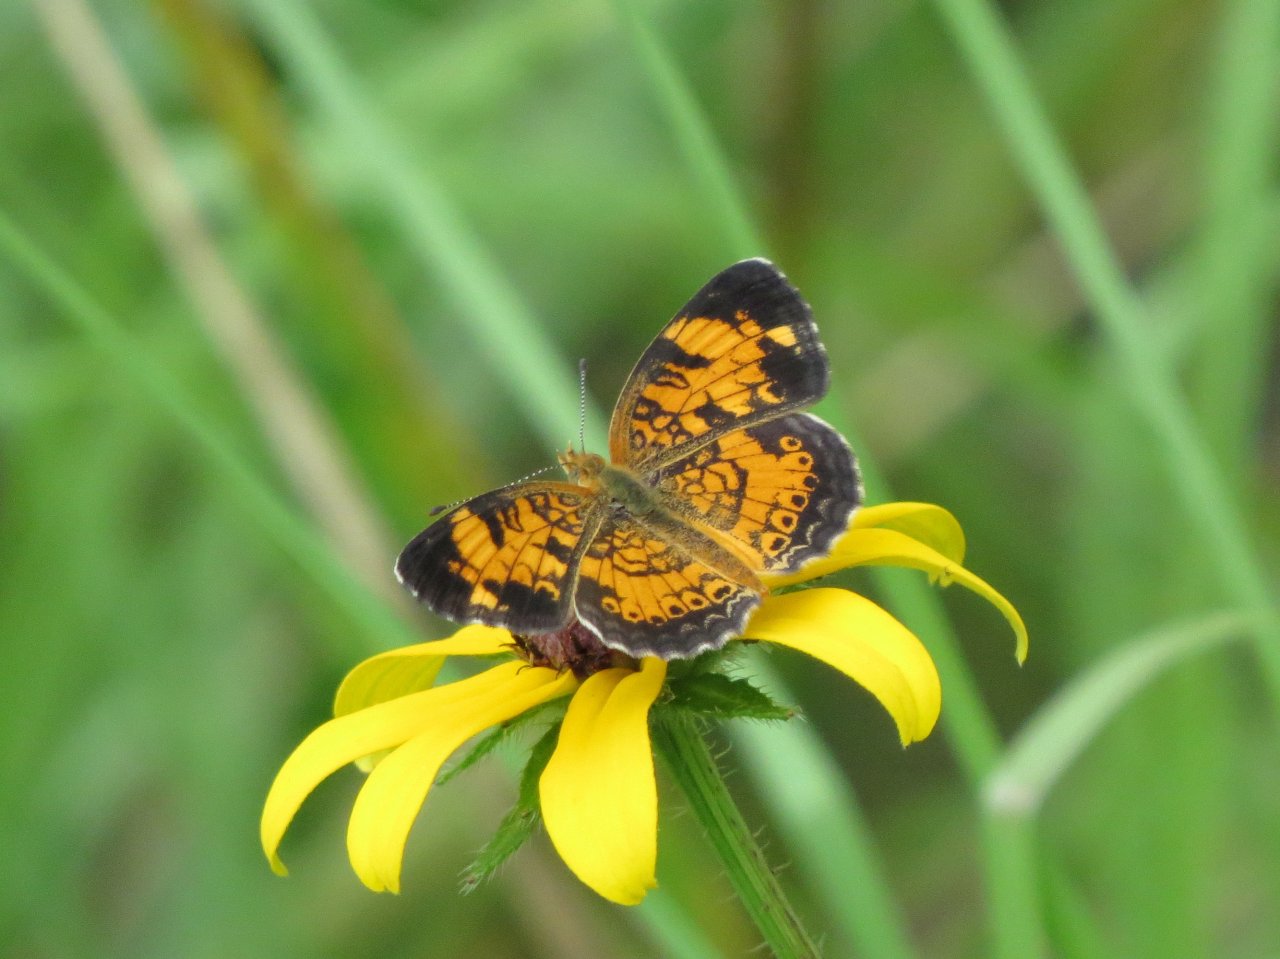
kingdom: Animalia
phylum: Arthropoda
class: Insecta
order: Lepidoptera
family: Nymphalidae
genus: Phyciodes
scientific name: Phyciodes tharos
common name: Pearl Crescent
